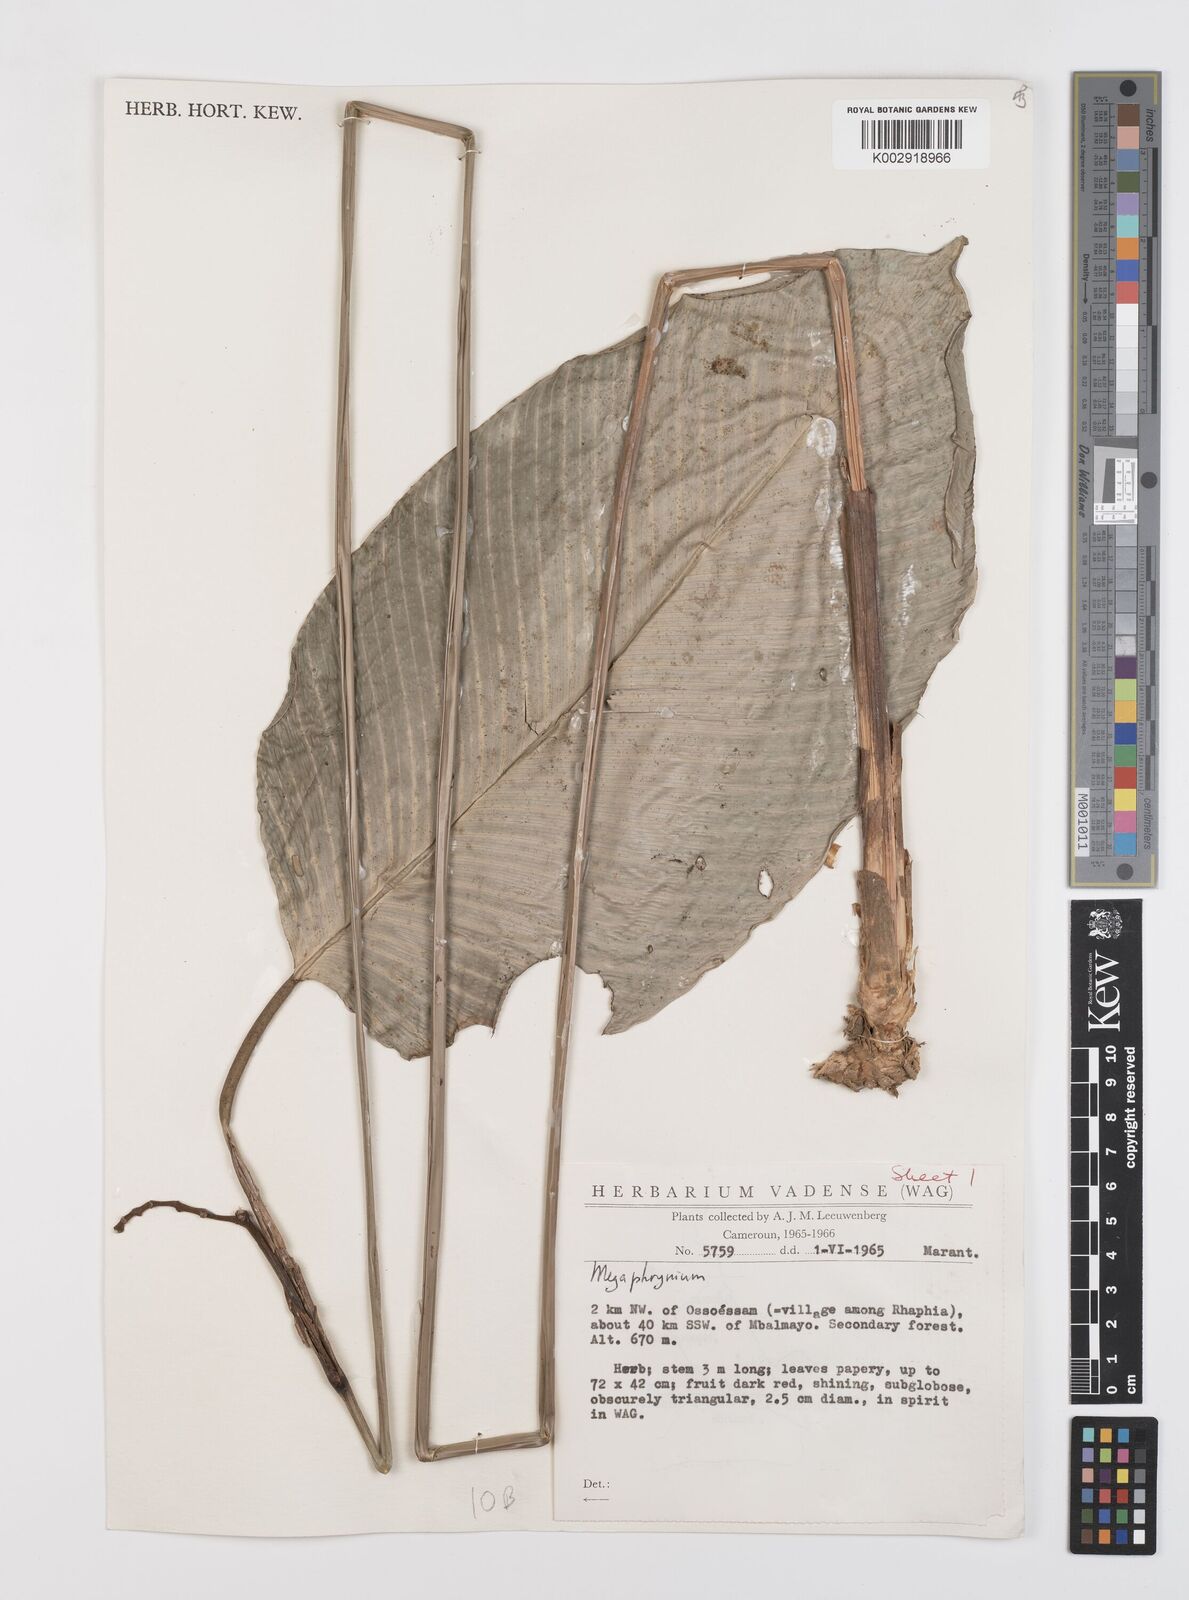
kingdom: Plantae
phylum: Tracheophyta
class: Liliopsida
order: Zingiberales
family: Marantaceae
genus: Megaphrynium
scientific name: Megaphrynium
